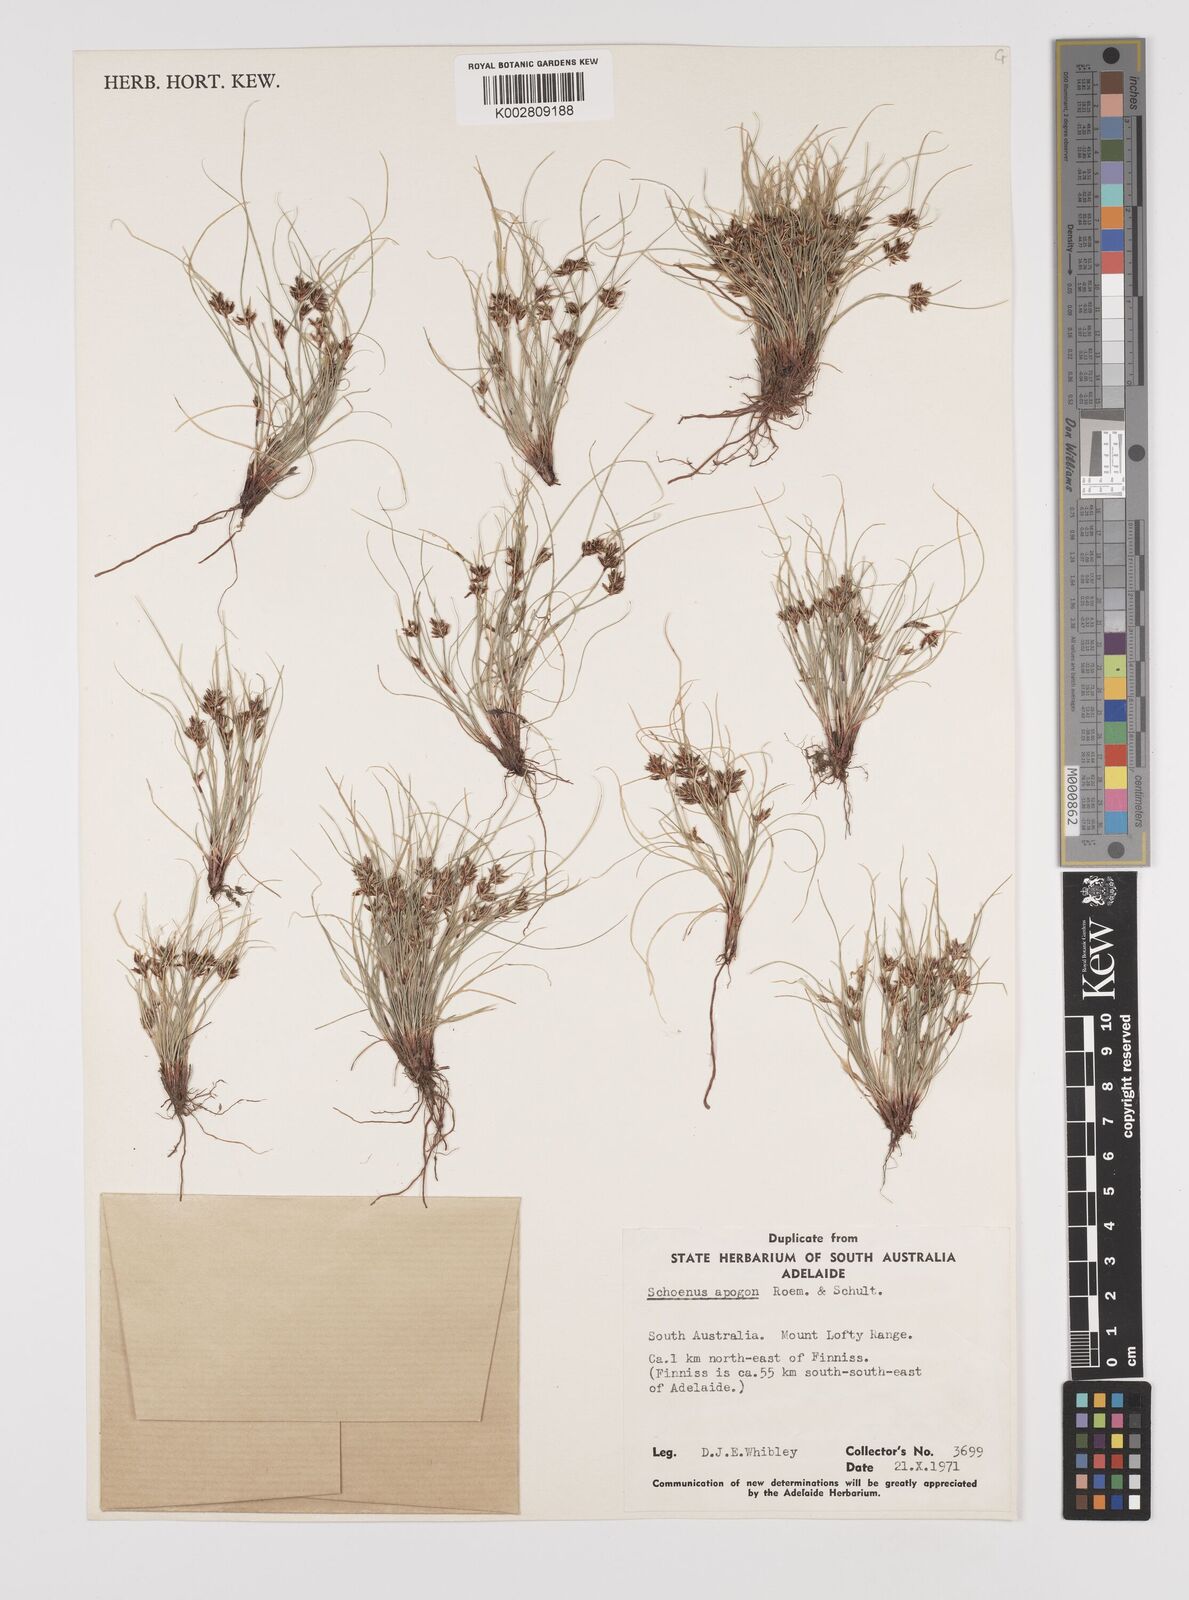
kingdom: Plantae
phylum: Tracheophyta
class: Liliopsida
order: Poales
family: Cyperaceae
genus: Schoenus
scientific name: Schoenus apogon
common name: Smooth bogrush
